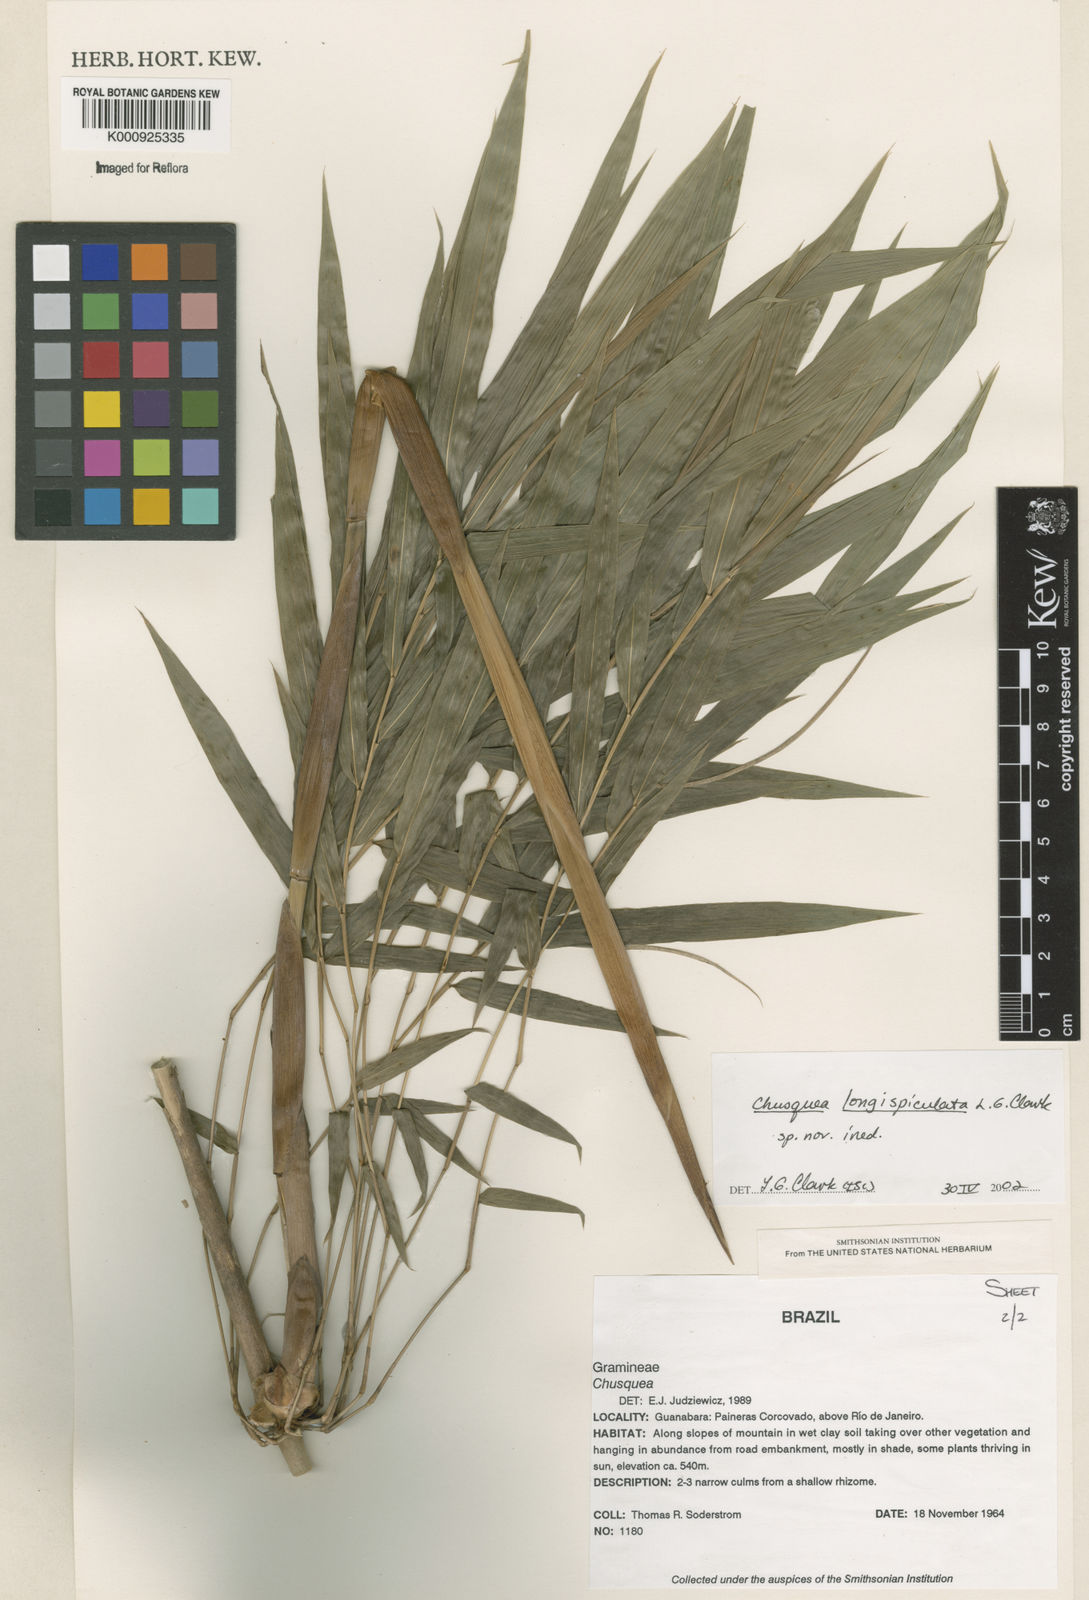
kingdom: Plantae
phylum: Tracheophyta
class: Liliopsida
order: Poales
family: Poaceae
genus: Chusquea
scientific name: Chusquea longispiculata
